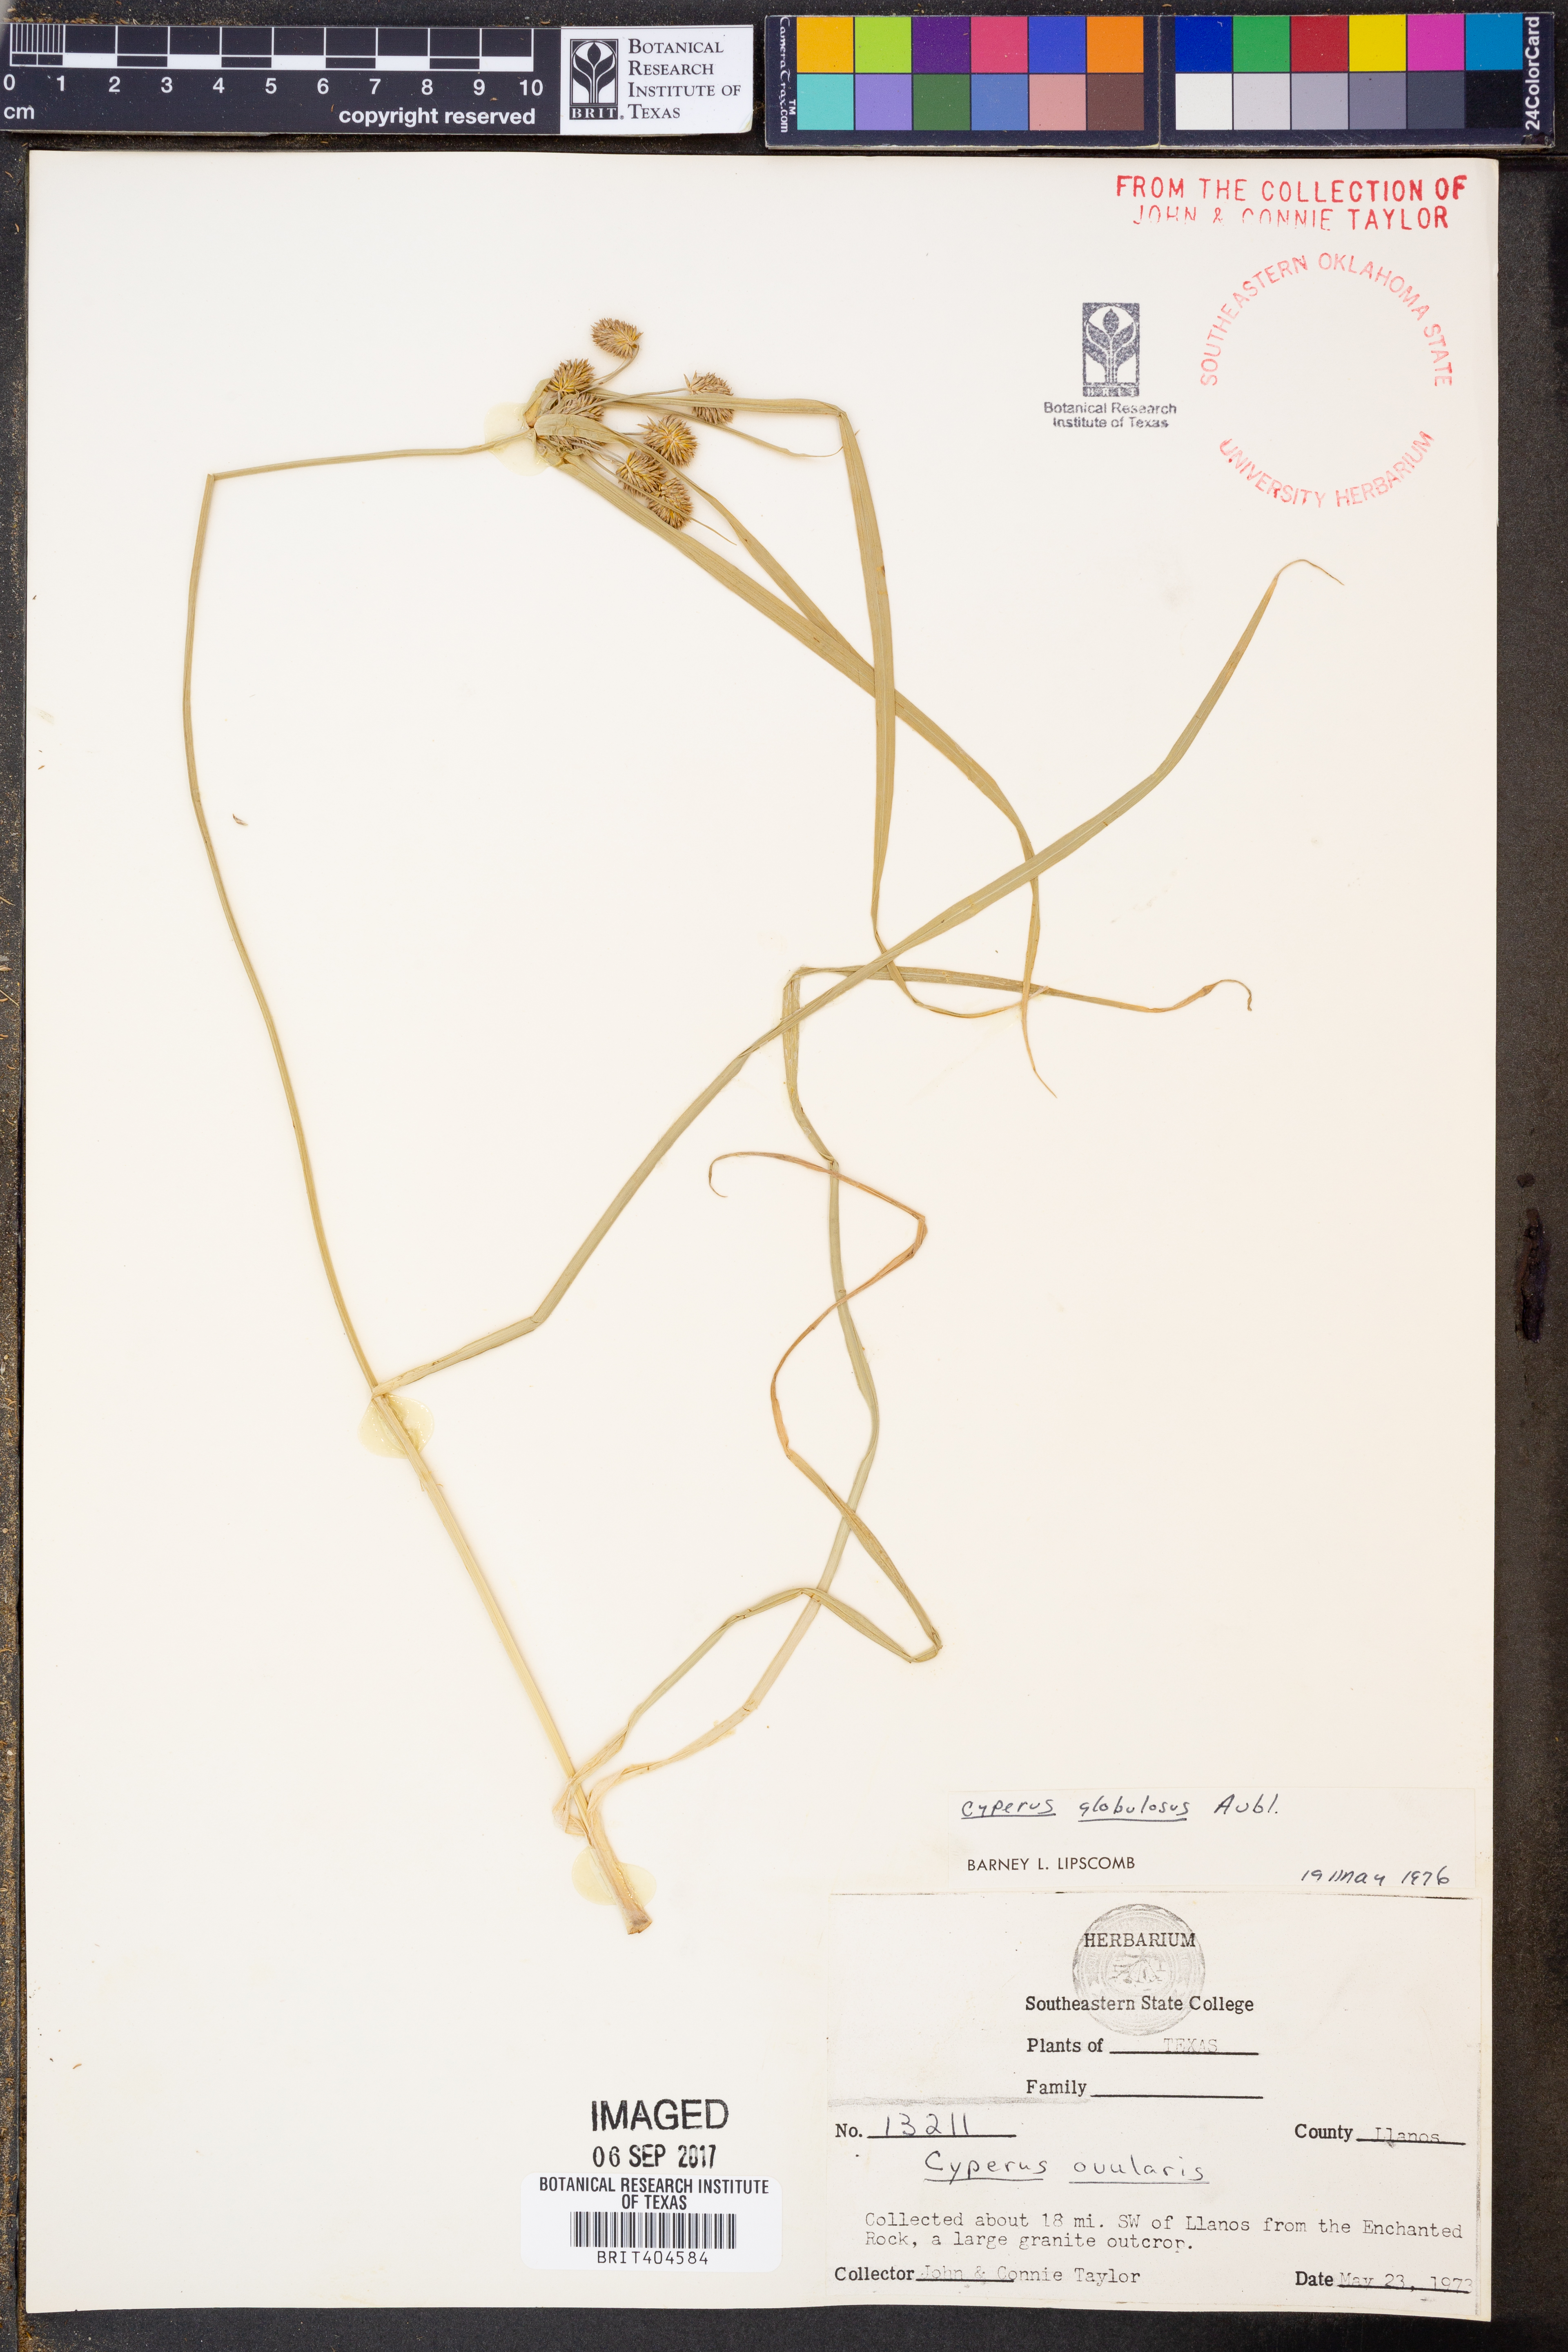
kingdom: Plantae
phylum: Tracheophyta
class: Liliopsida
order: Poales
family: Cyperaceae
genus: Cyperus
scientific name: Cyperus luzulae
